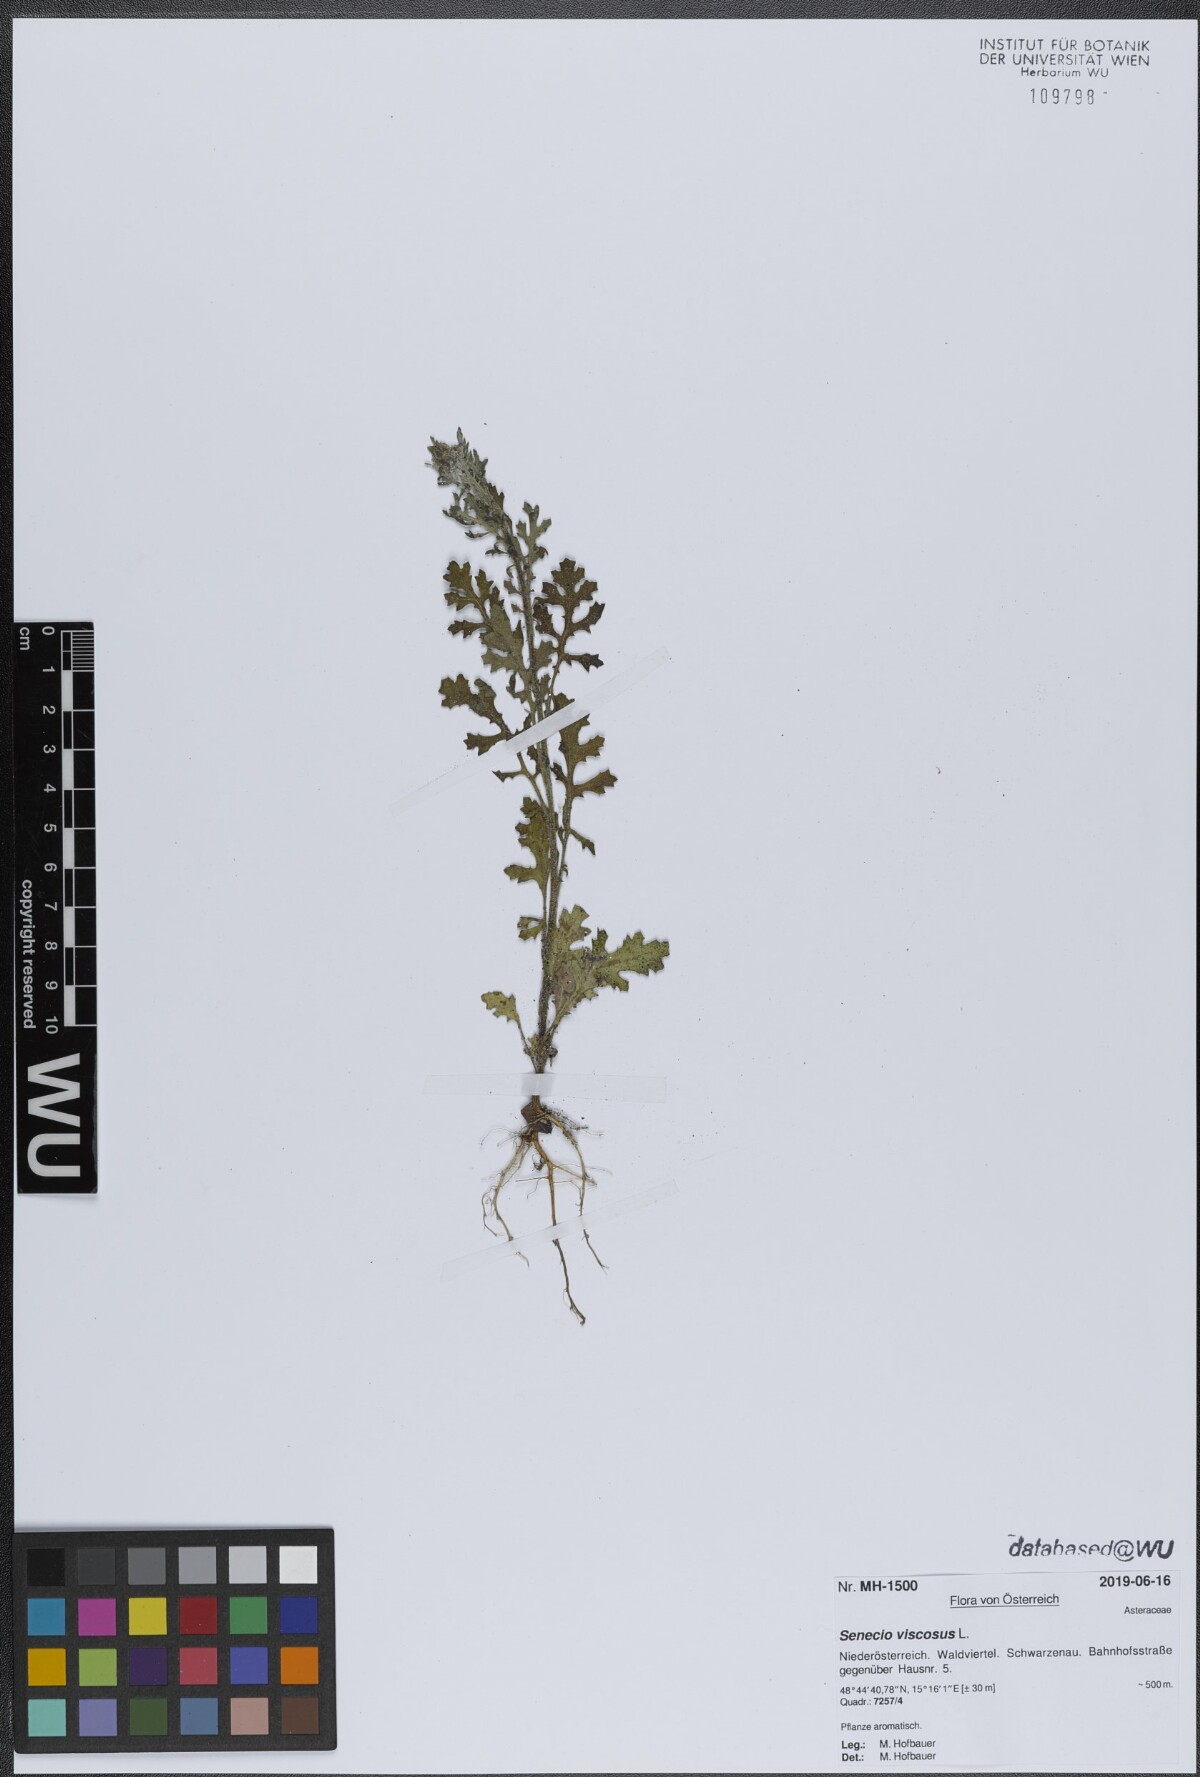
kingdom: Plantae
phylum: Tracheophyta
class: Magnoliopsida
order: Asterales
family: Asteraceae
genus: Senecio
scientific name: Senecio viscosus
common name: Sticky groundsel
